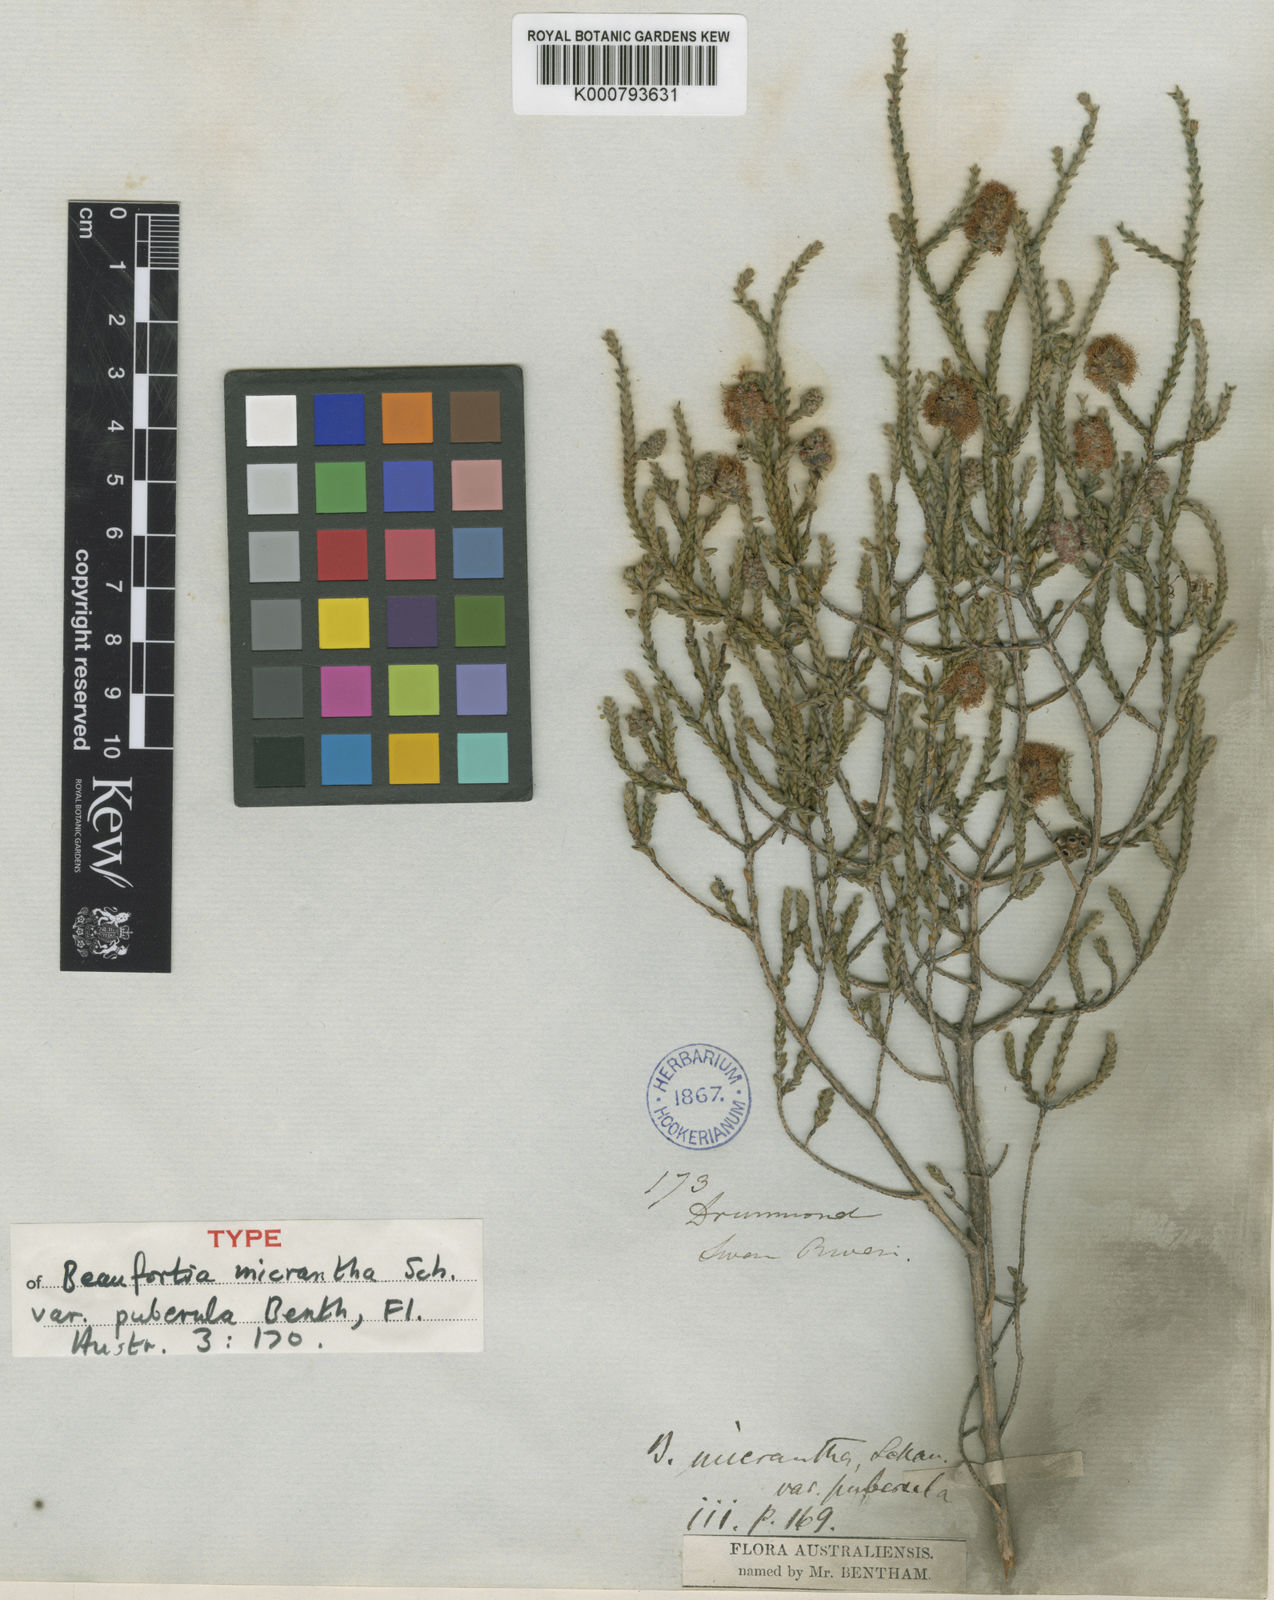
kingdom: Plantae
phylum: Tracheophyta
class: Magnoliopsida
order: Myrtales
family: Myrtaceae
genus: Melaleuca
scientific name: Melaleuca micrantha
